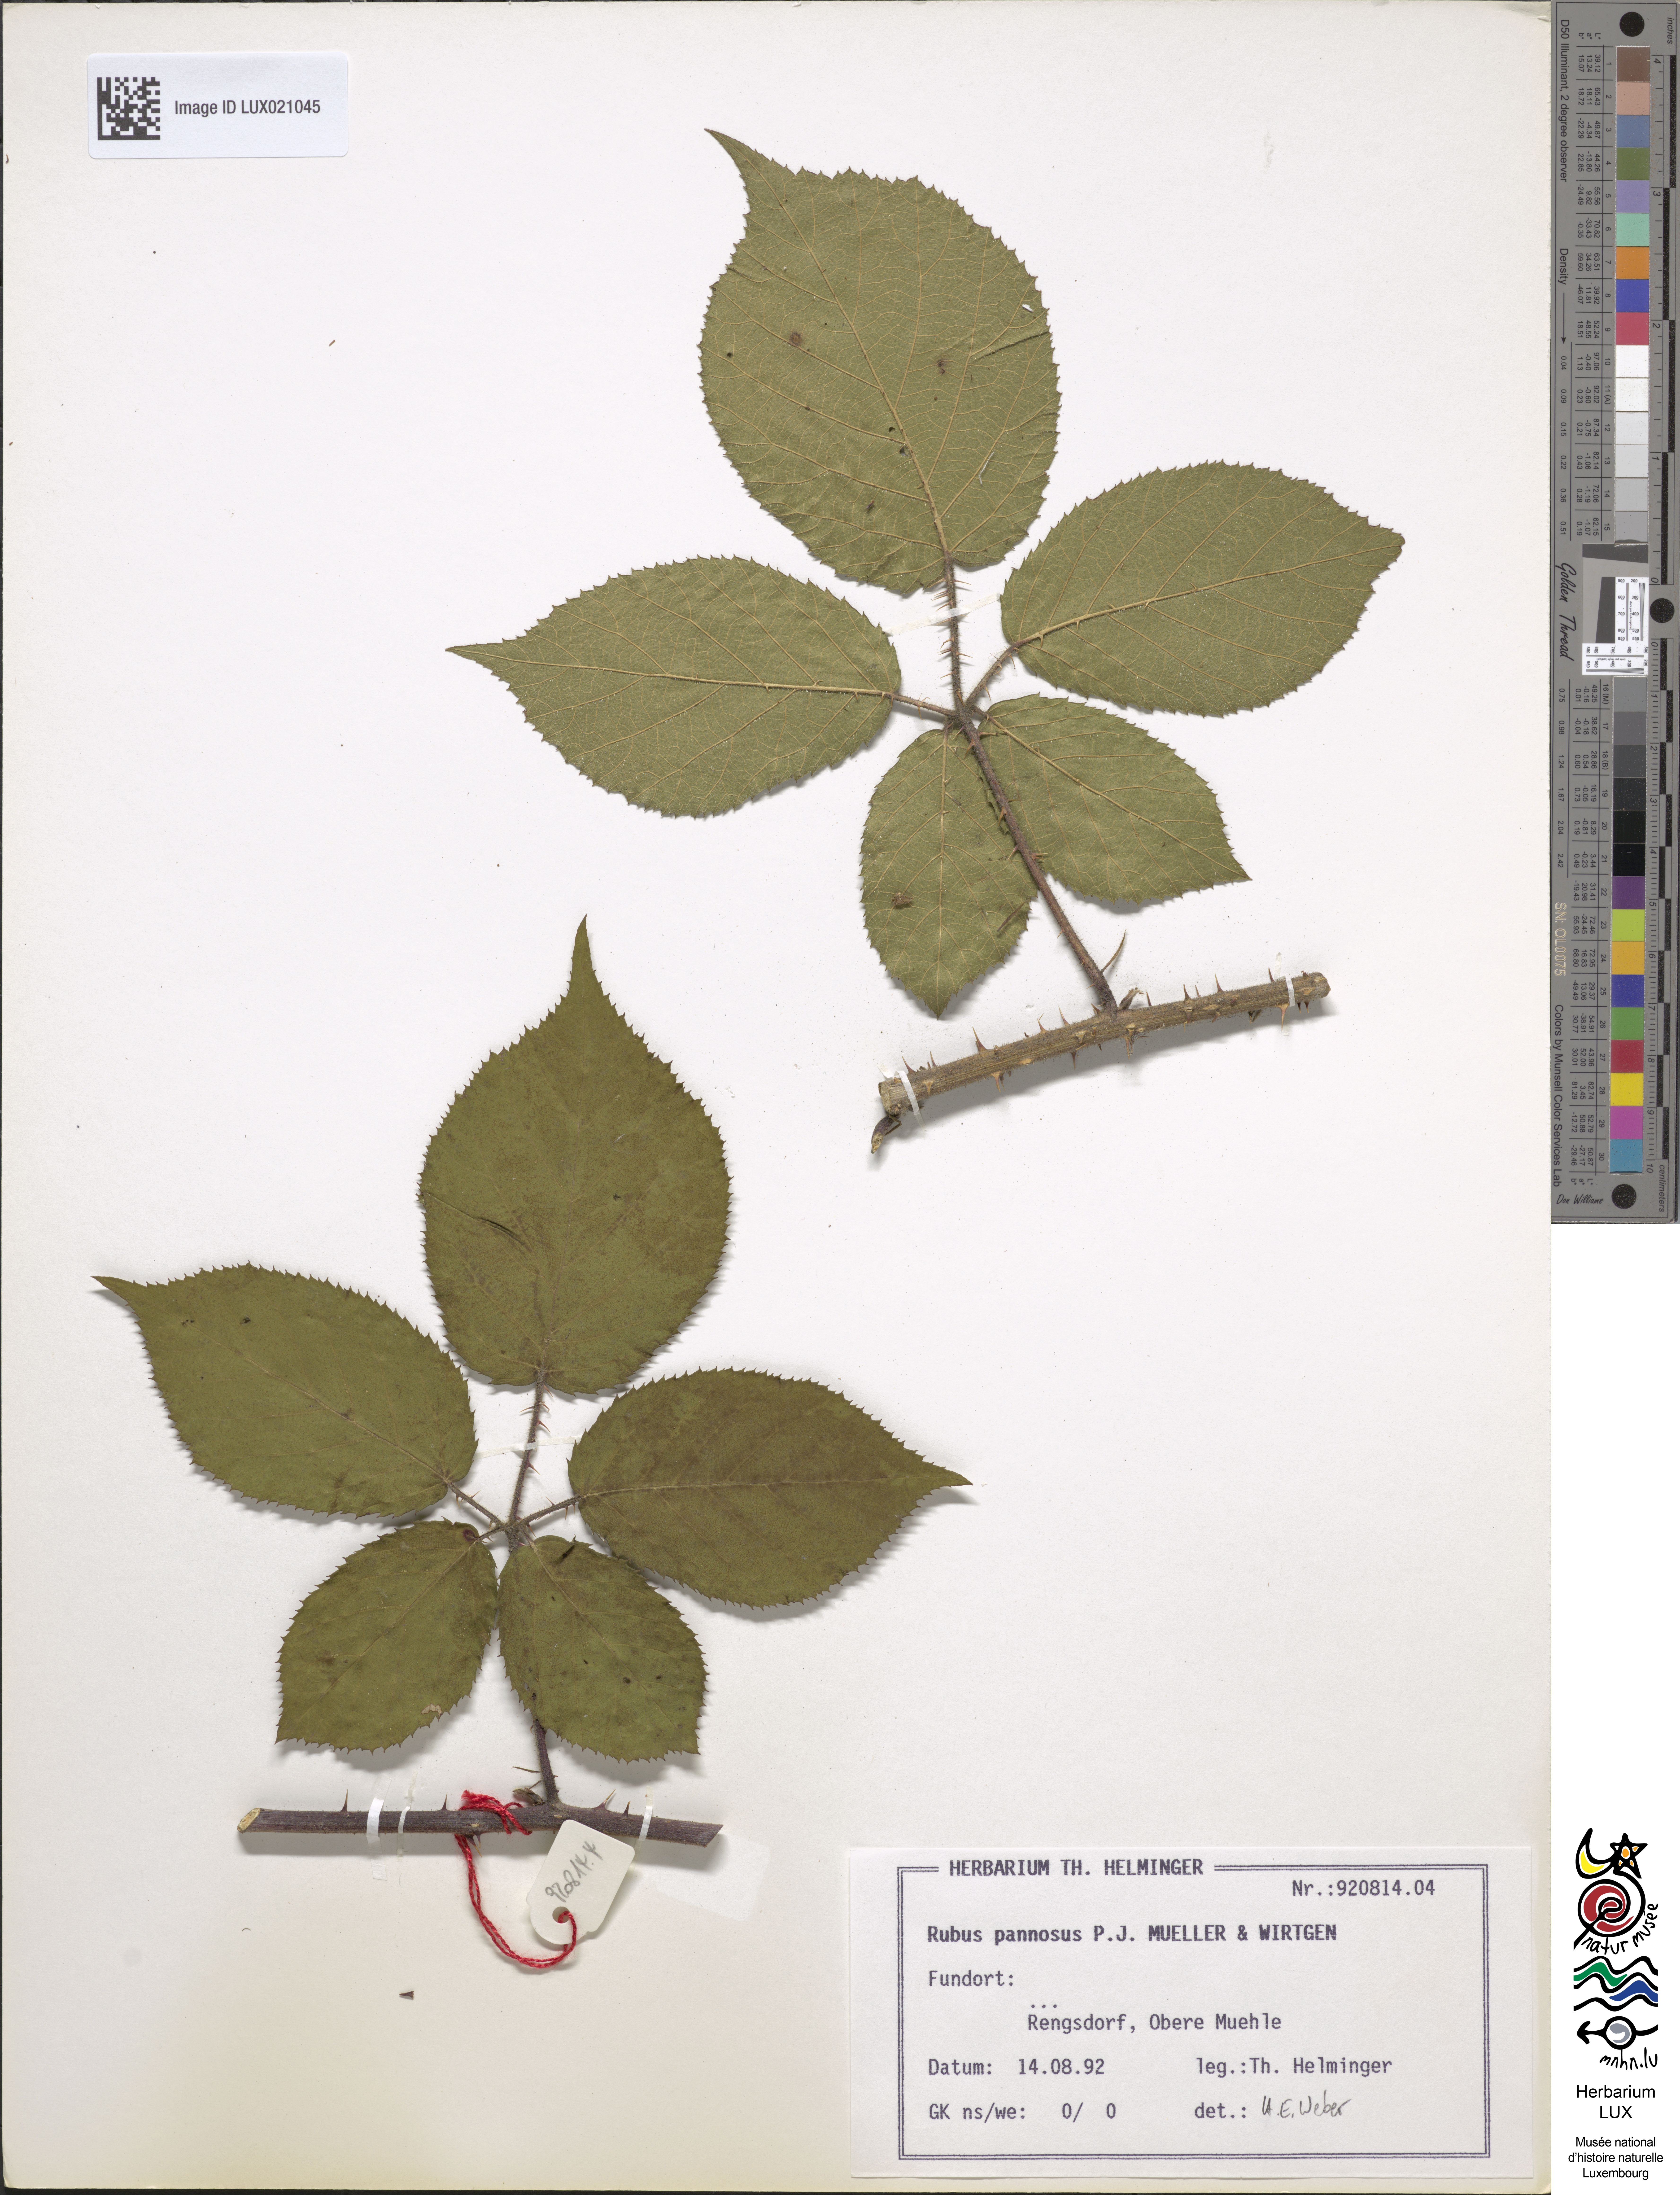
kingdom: Plantae
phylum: Tracheophyta
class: Magnoliopsida
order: Rosales
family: Rosaceae
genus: Rubus
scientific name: Rubus pannosus
